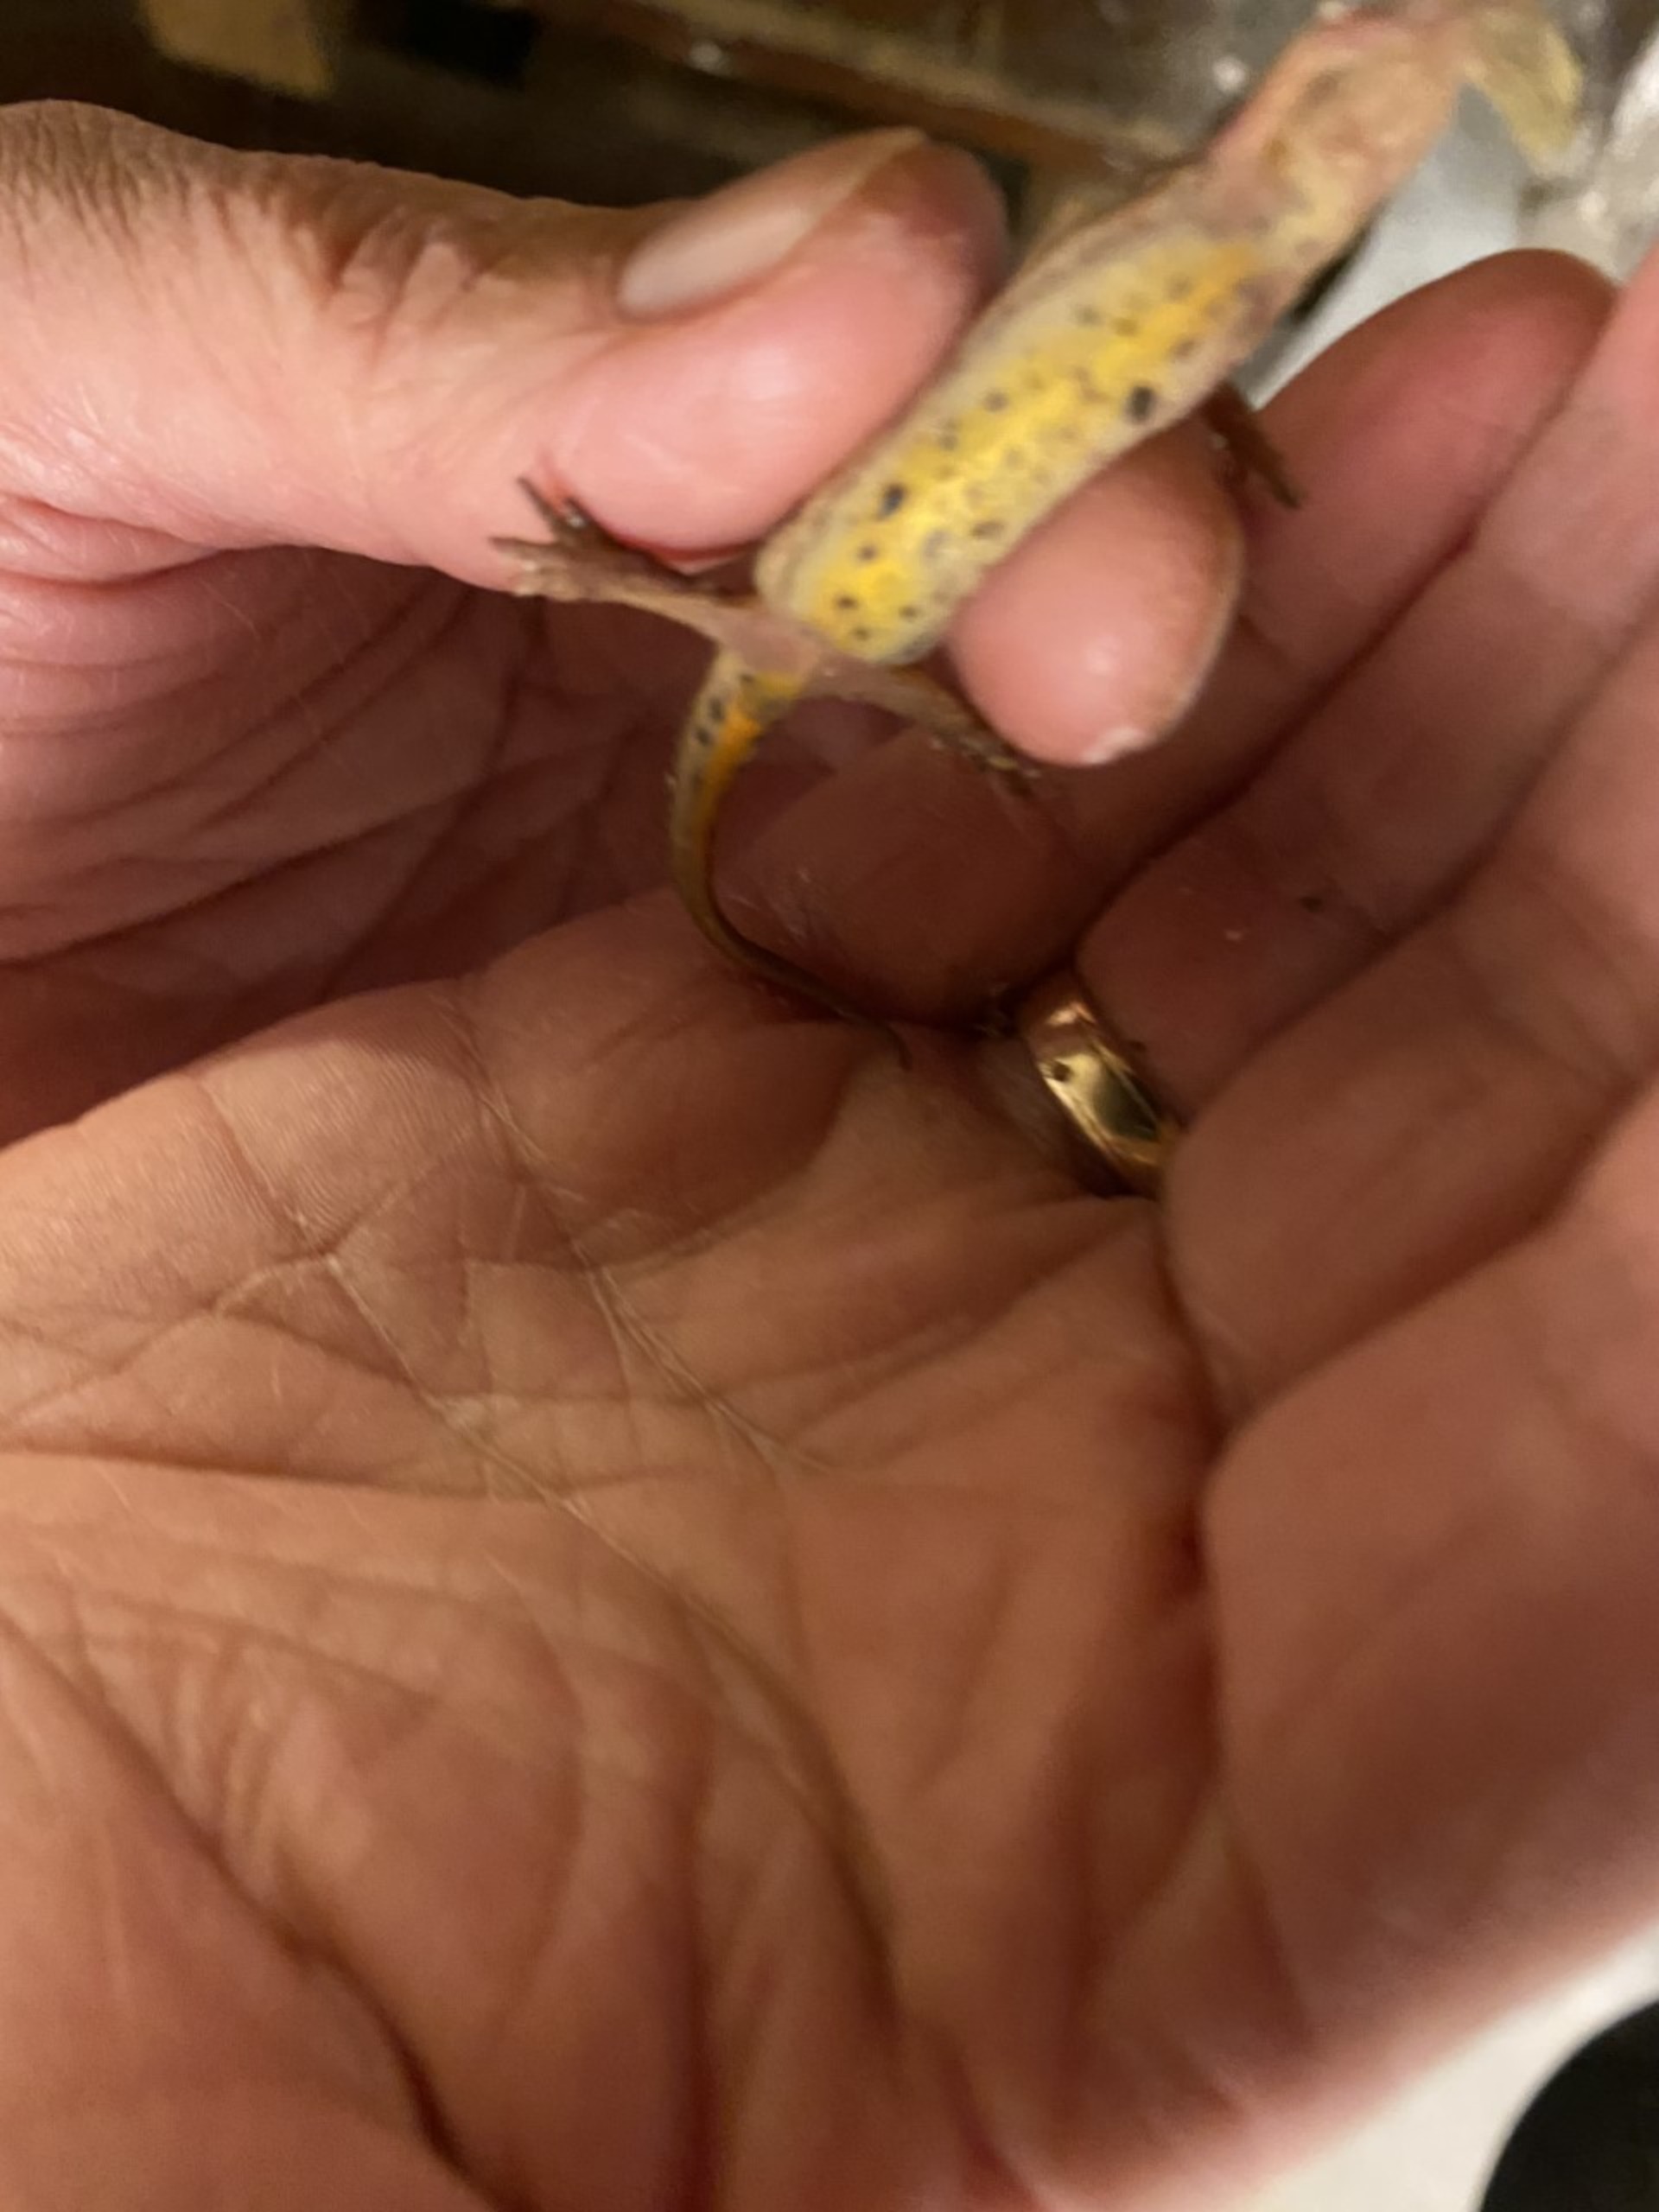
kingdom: Animalia
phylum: Chordata
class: Amphibia
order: Caudata
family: Salamandridae
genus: Lissotriton
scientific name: Lissotriton vulgaris
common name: Lille vandsalamander
